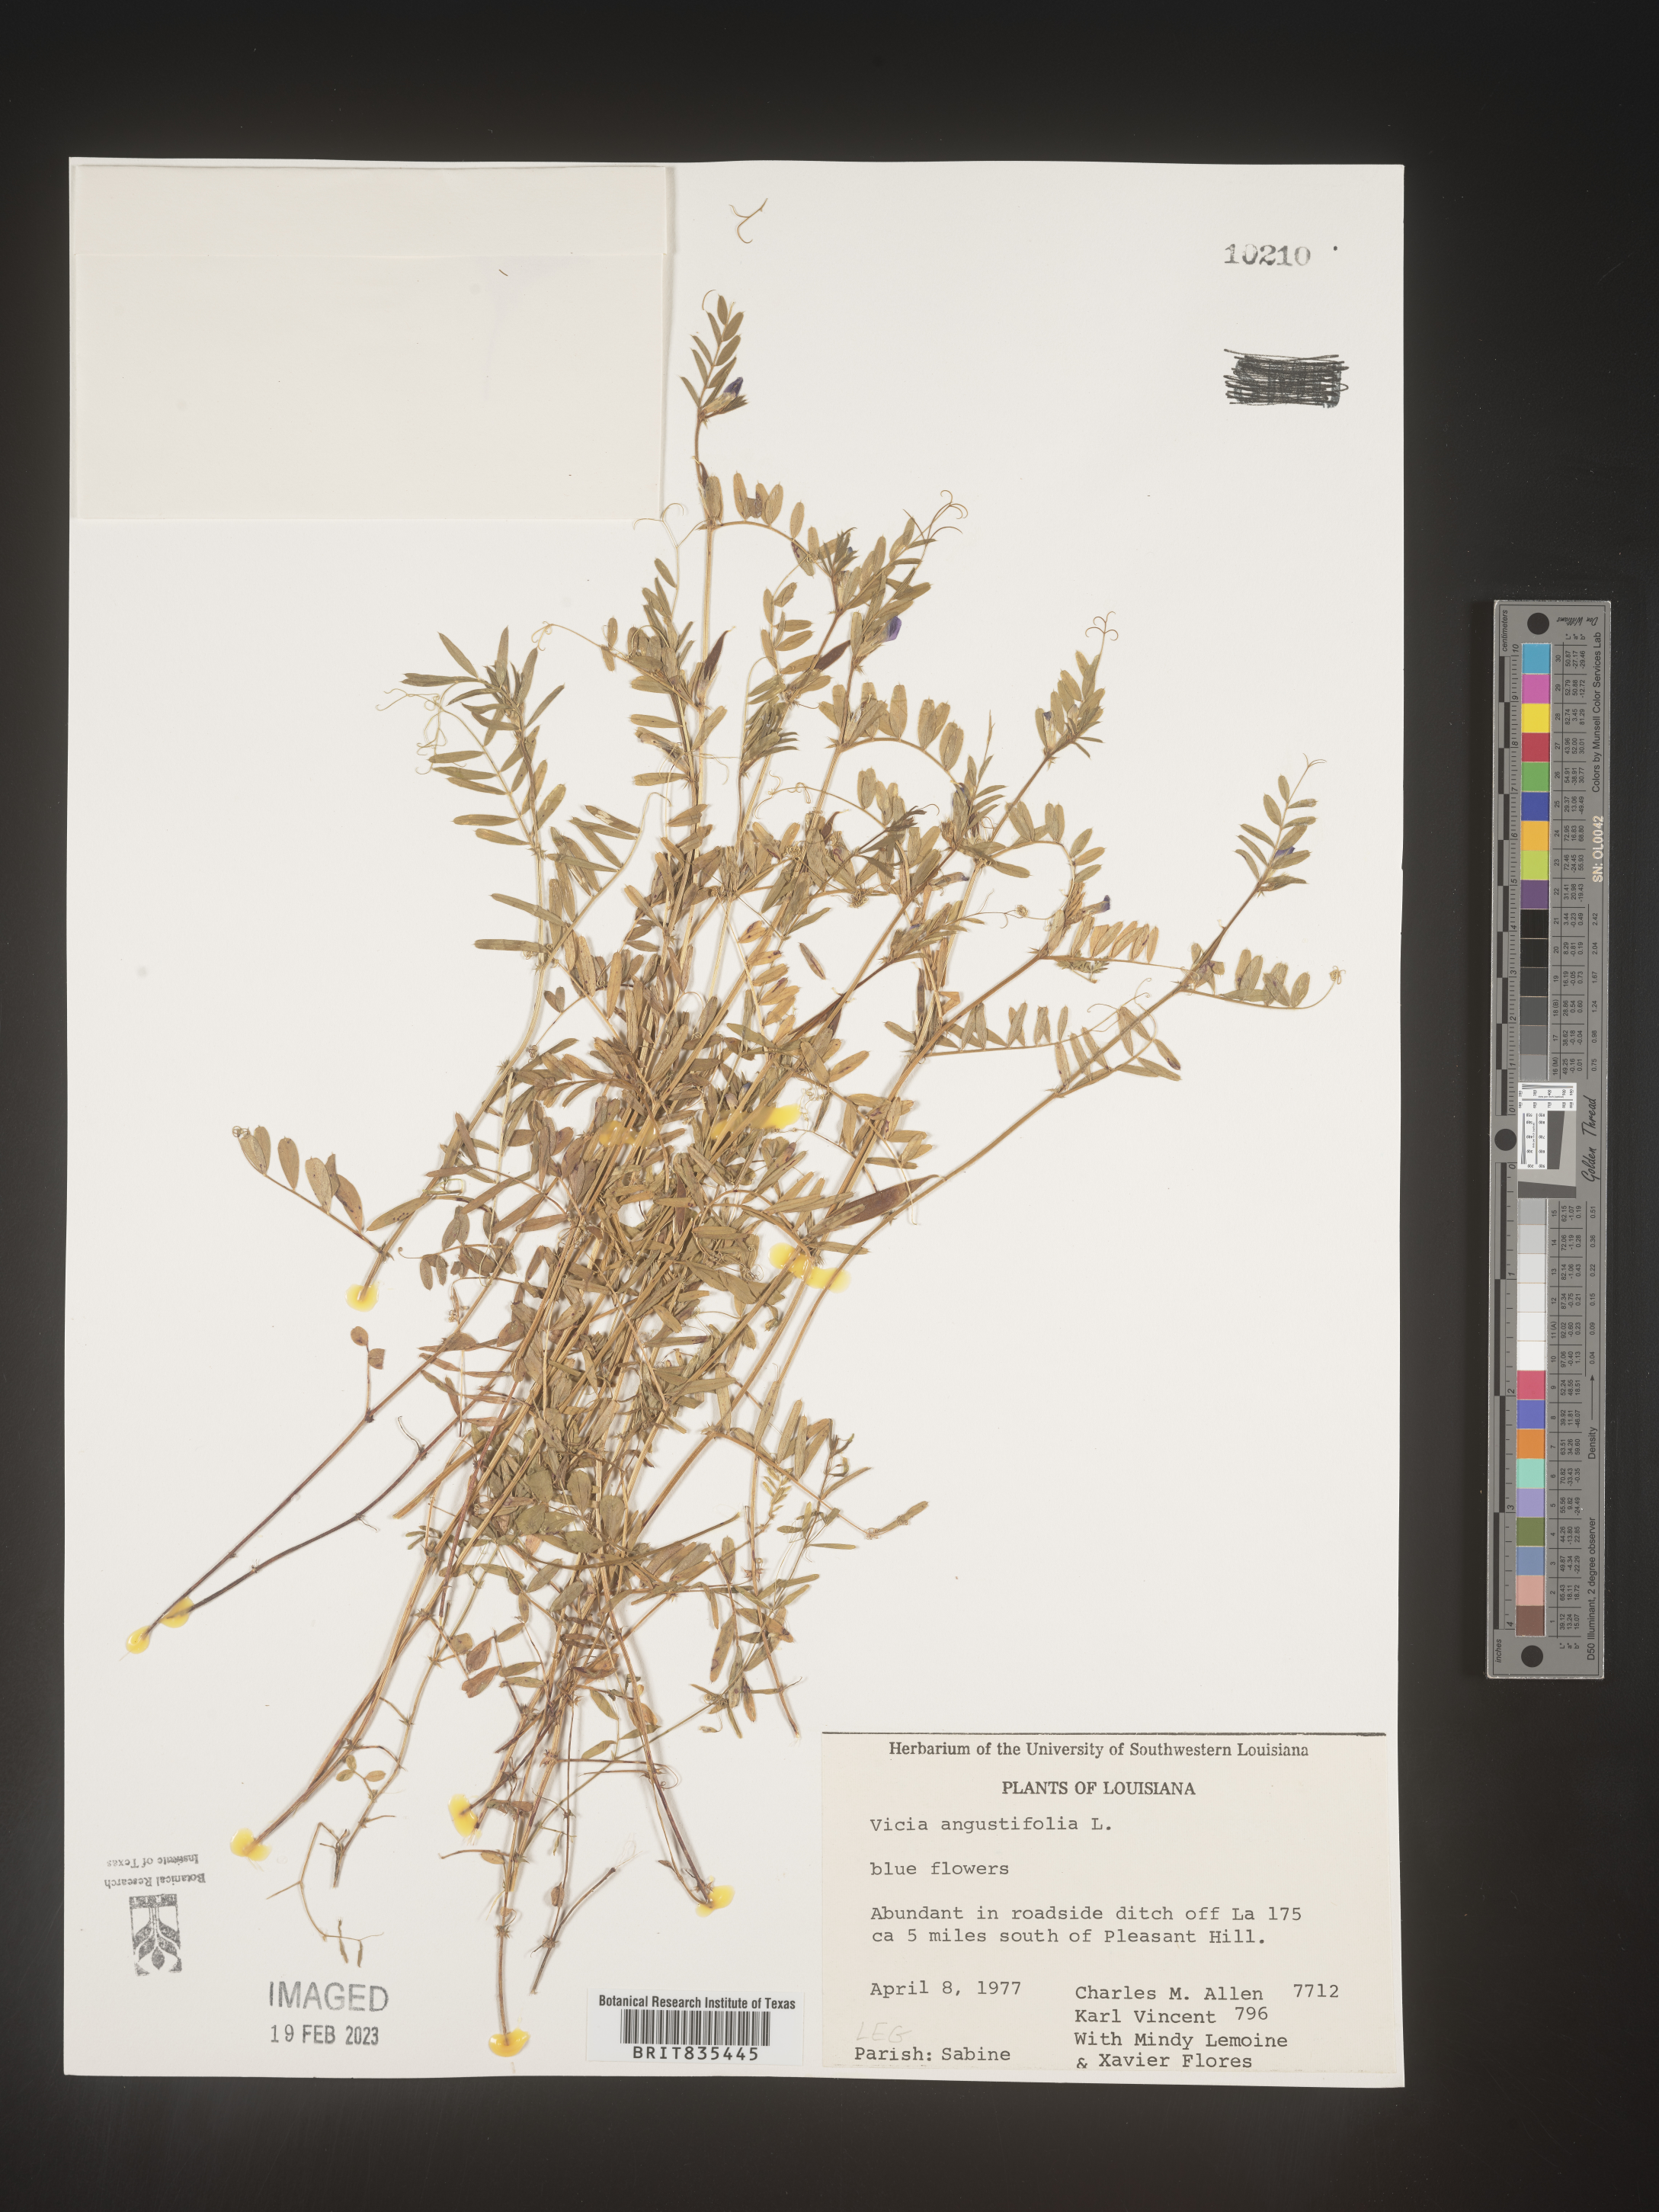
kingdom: Plantae
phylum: Tracheophyta
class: Magnoliopsida
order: Fabales
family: Fabaceae
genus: Vicia
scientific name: Vicia sativa
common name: Garden vetch
